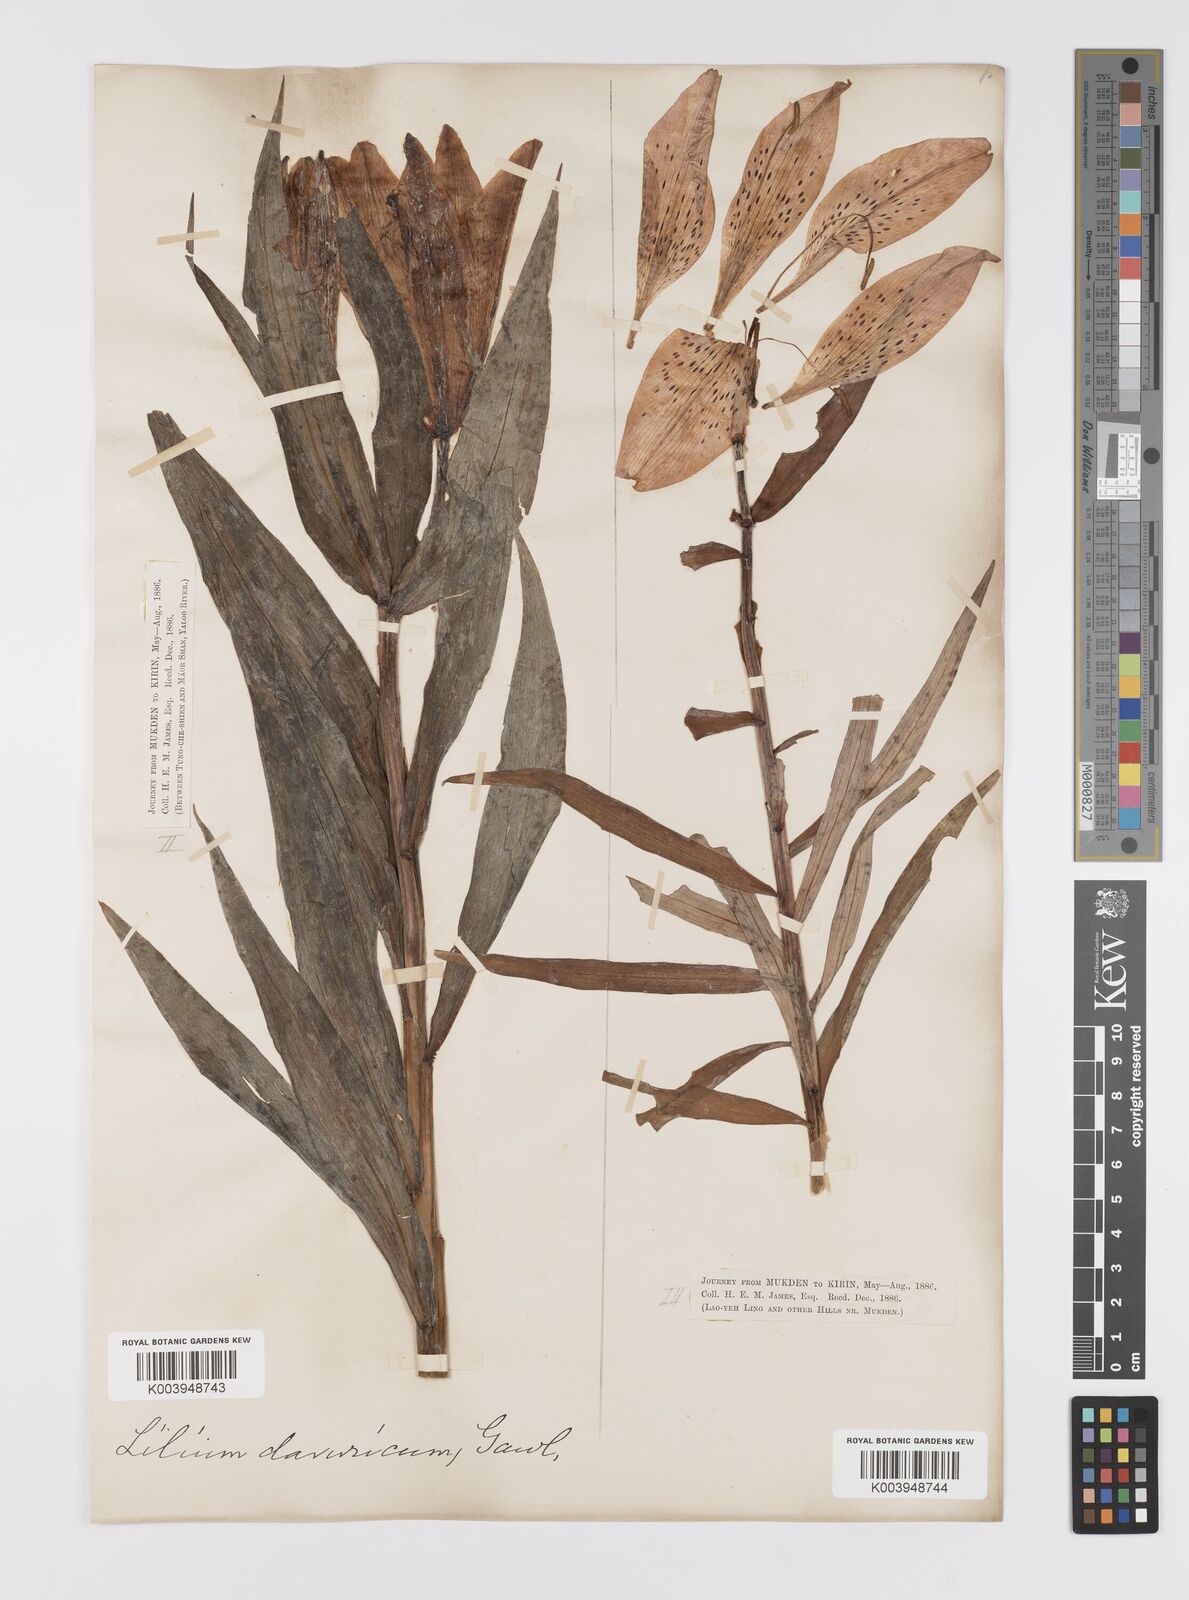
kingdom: Plantae
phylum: Tracheophyta
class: Liliopsida
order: Liliales
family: Liliaceae
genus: Lilium
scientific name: Lilium pensylvanicum
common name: Candlestick lily
